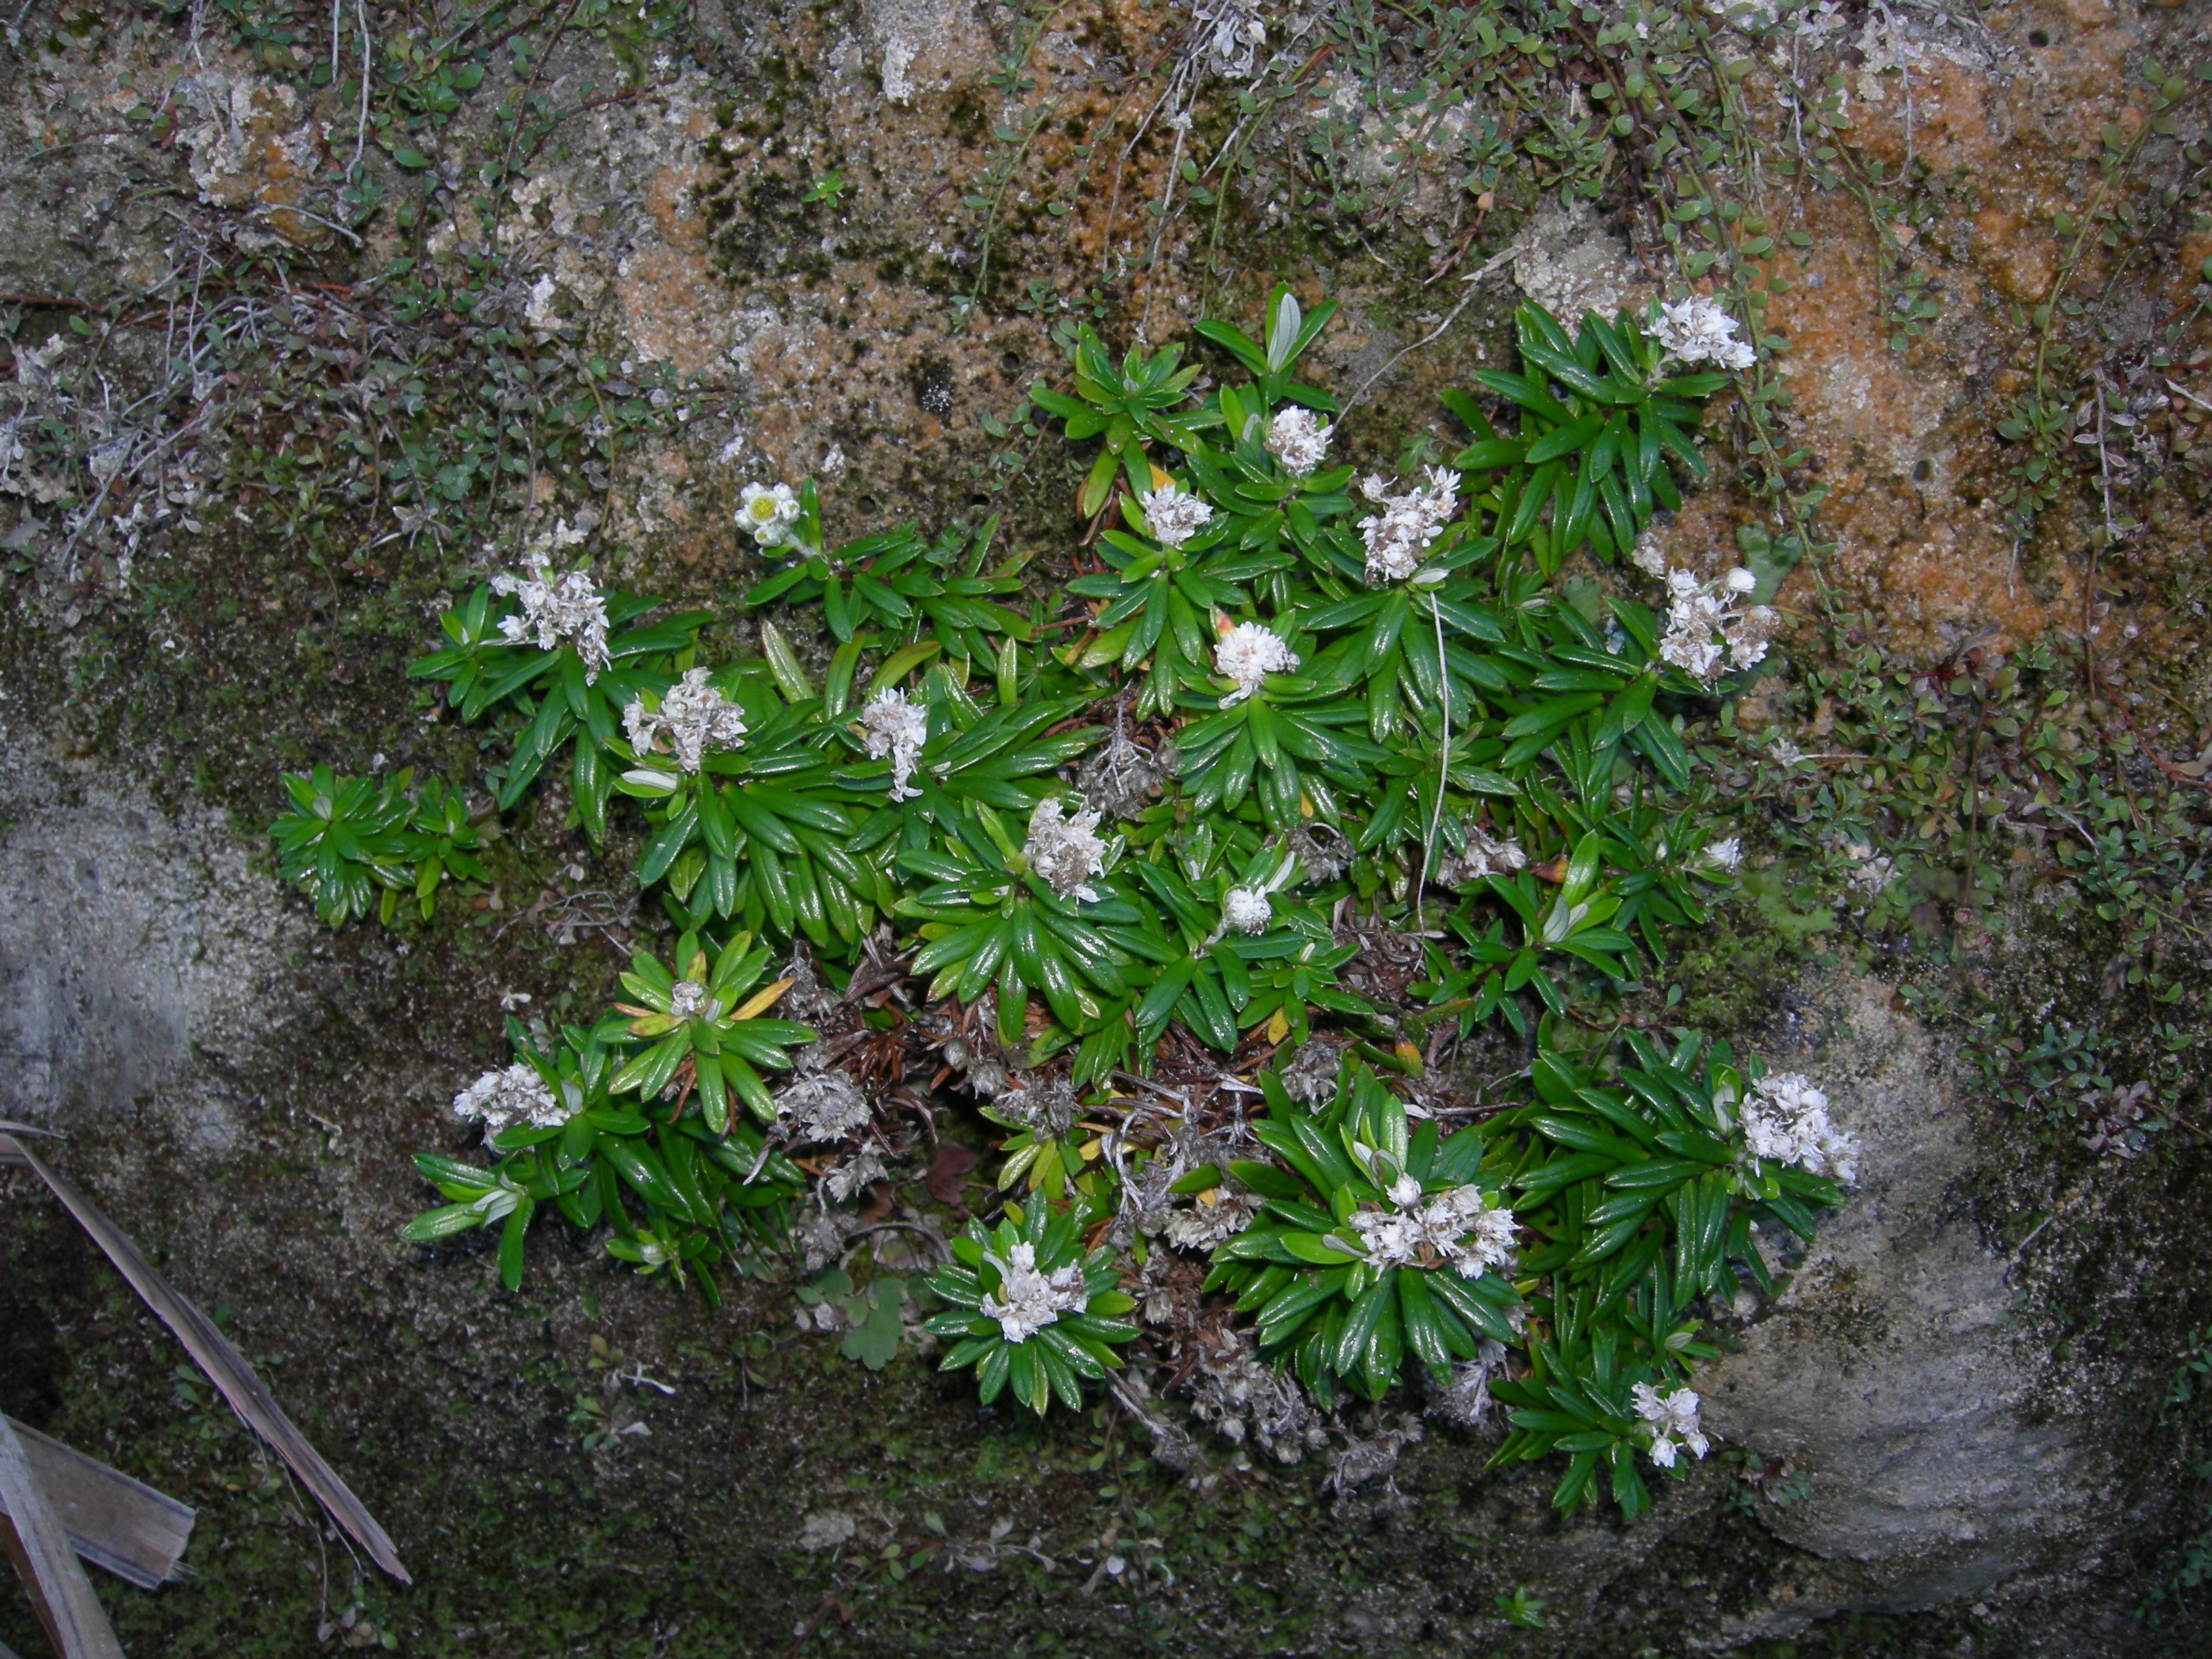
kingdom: Plantae
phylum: Tracheophyta
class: Magnoliopsida
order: Asterales
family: Asteraceae
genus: Anaphalioides
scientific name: Anaphalioides trinervis
